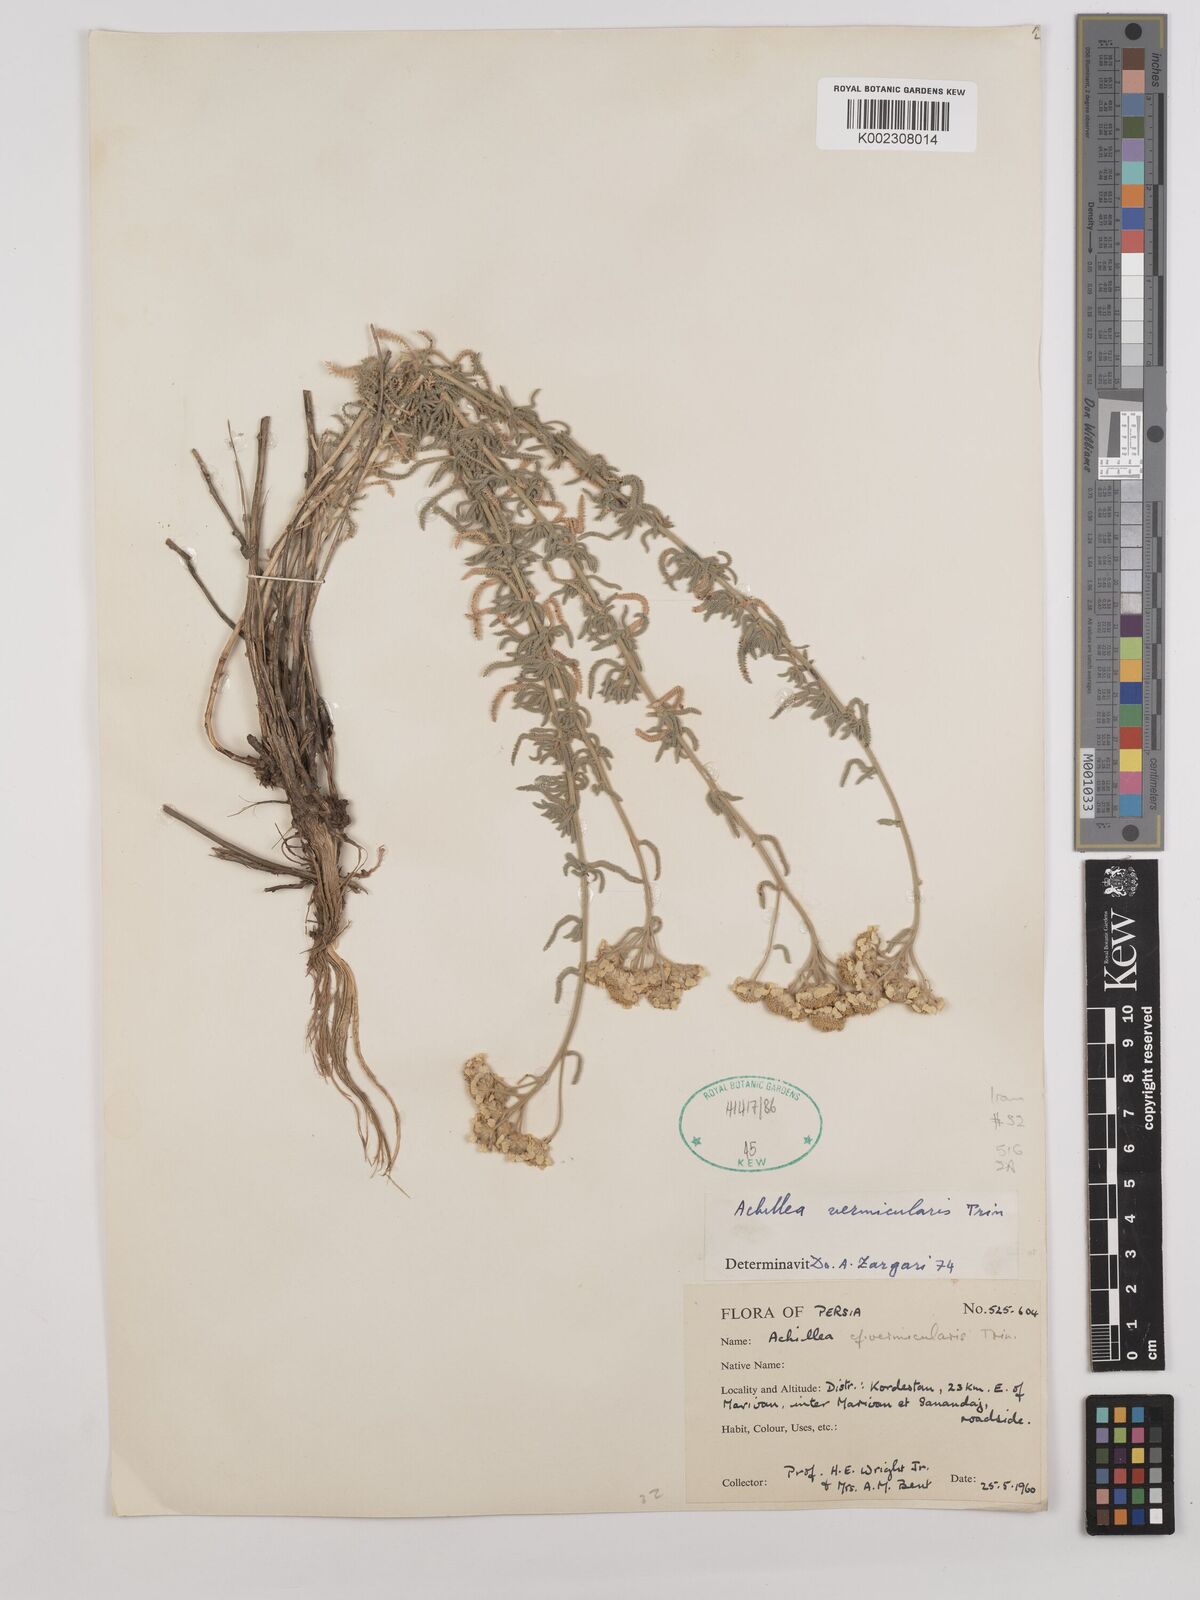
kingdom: Plantae
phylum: Tracheophyta
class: Magnoliopsida
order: Asterales
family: Asteraceae
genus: Achillea
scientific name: Achillea vermicularis
